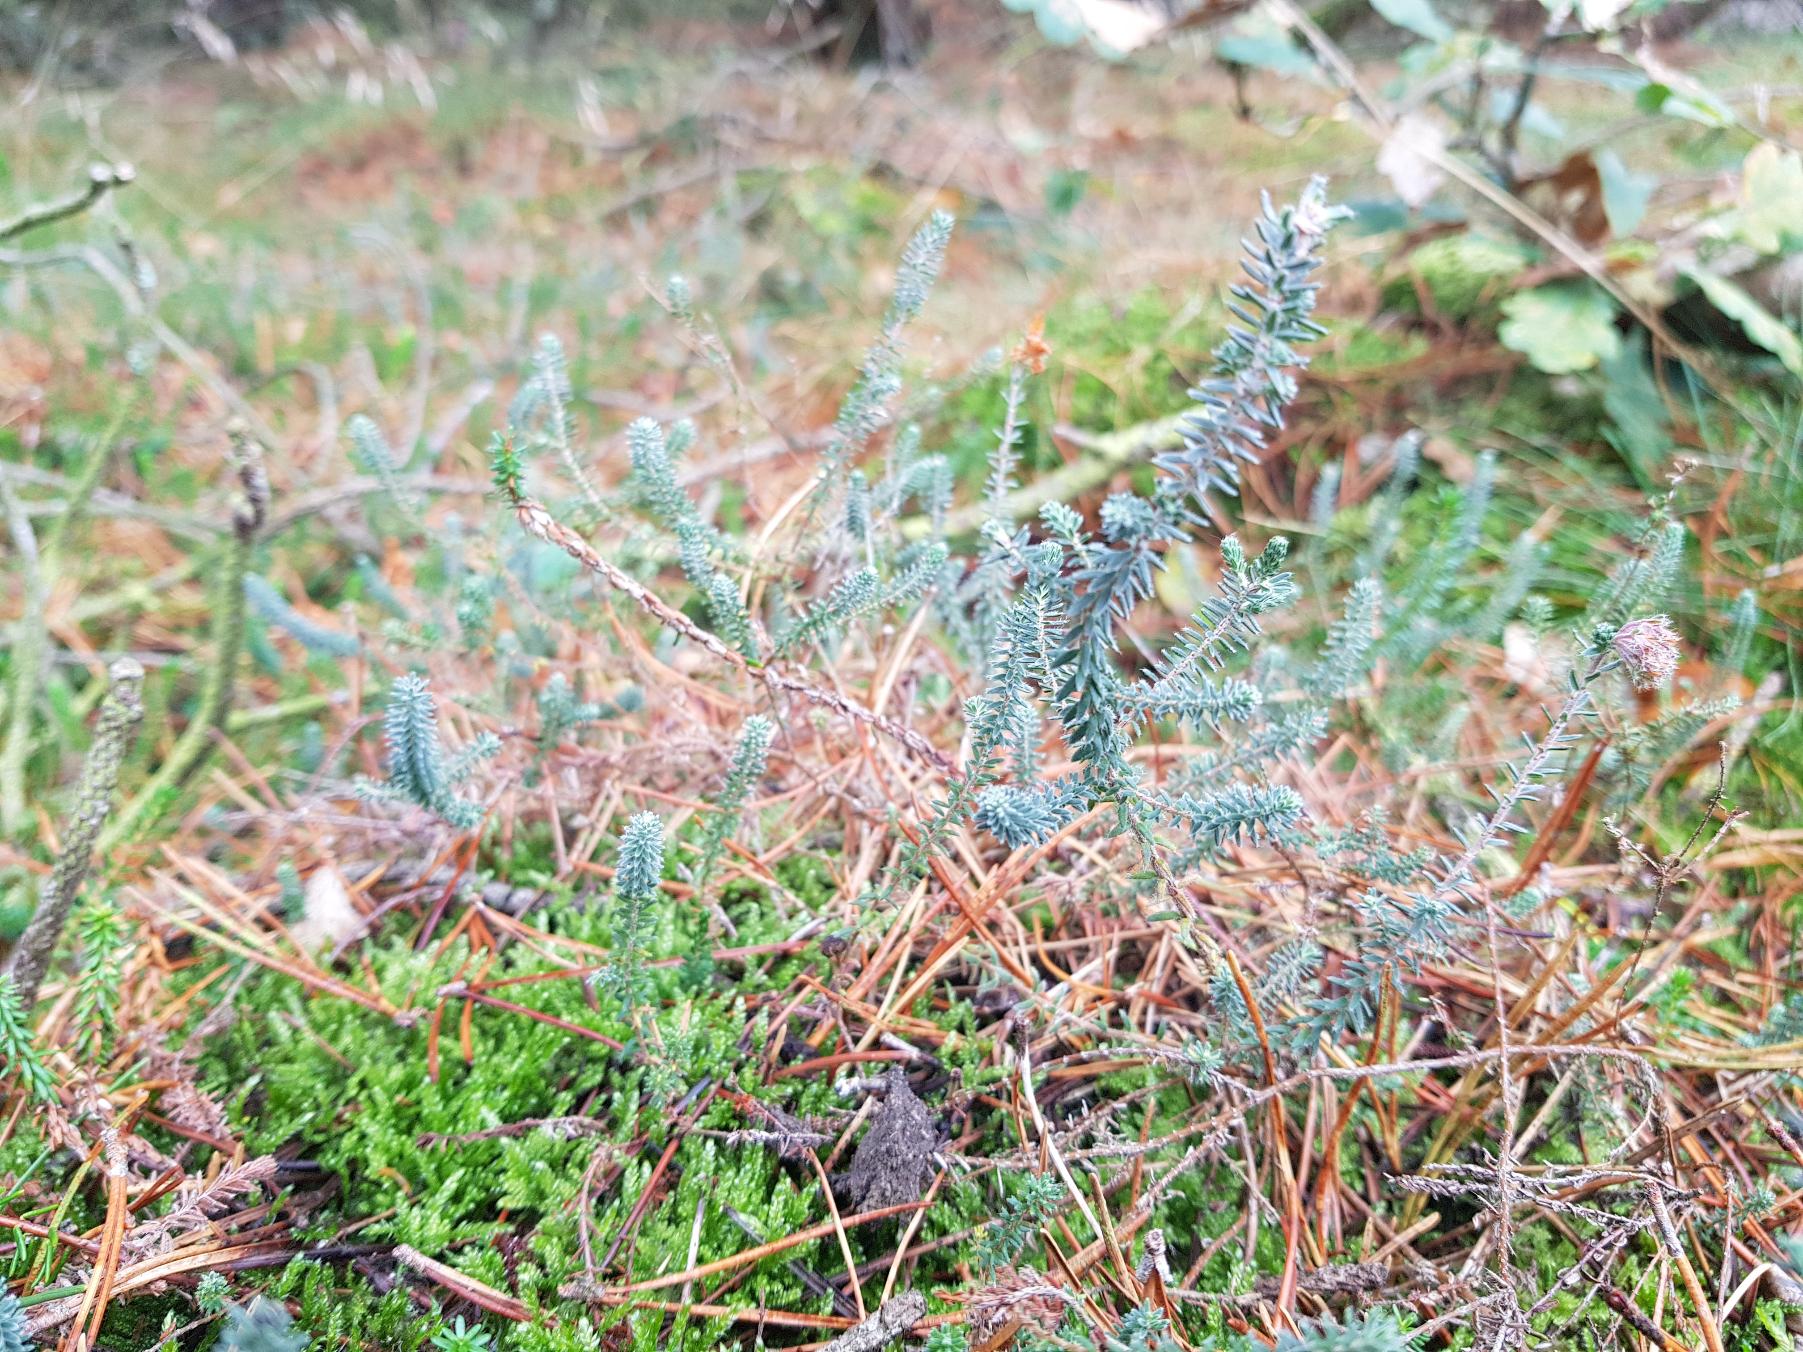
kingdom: Plantae
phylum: Tracheophyta
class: Magnoliopsida
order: Ericales
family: Ericaceae
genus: Erica
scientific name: Erica tetralix
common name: Klokkelyng
